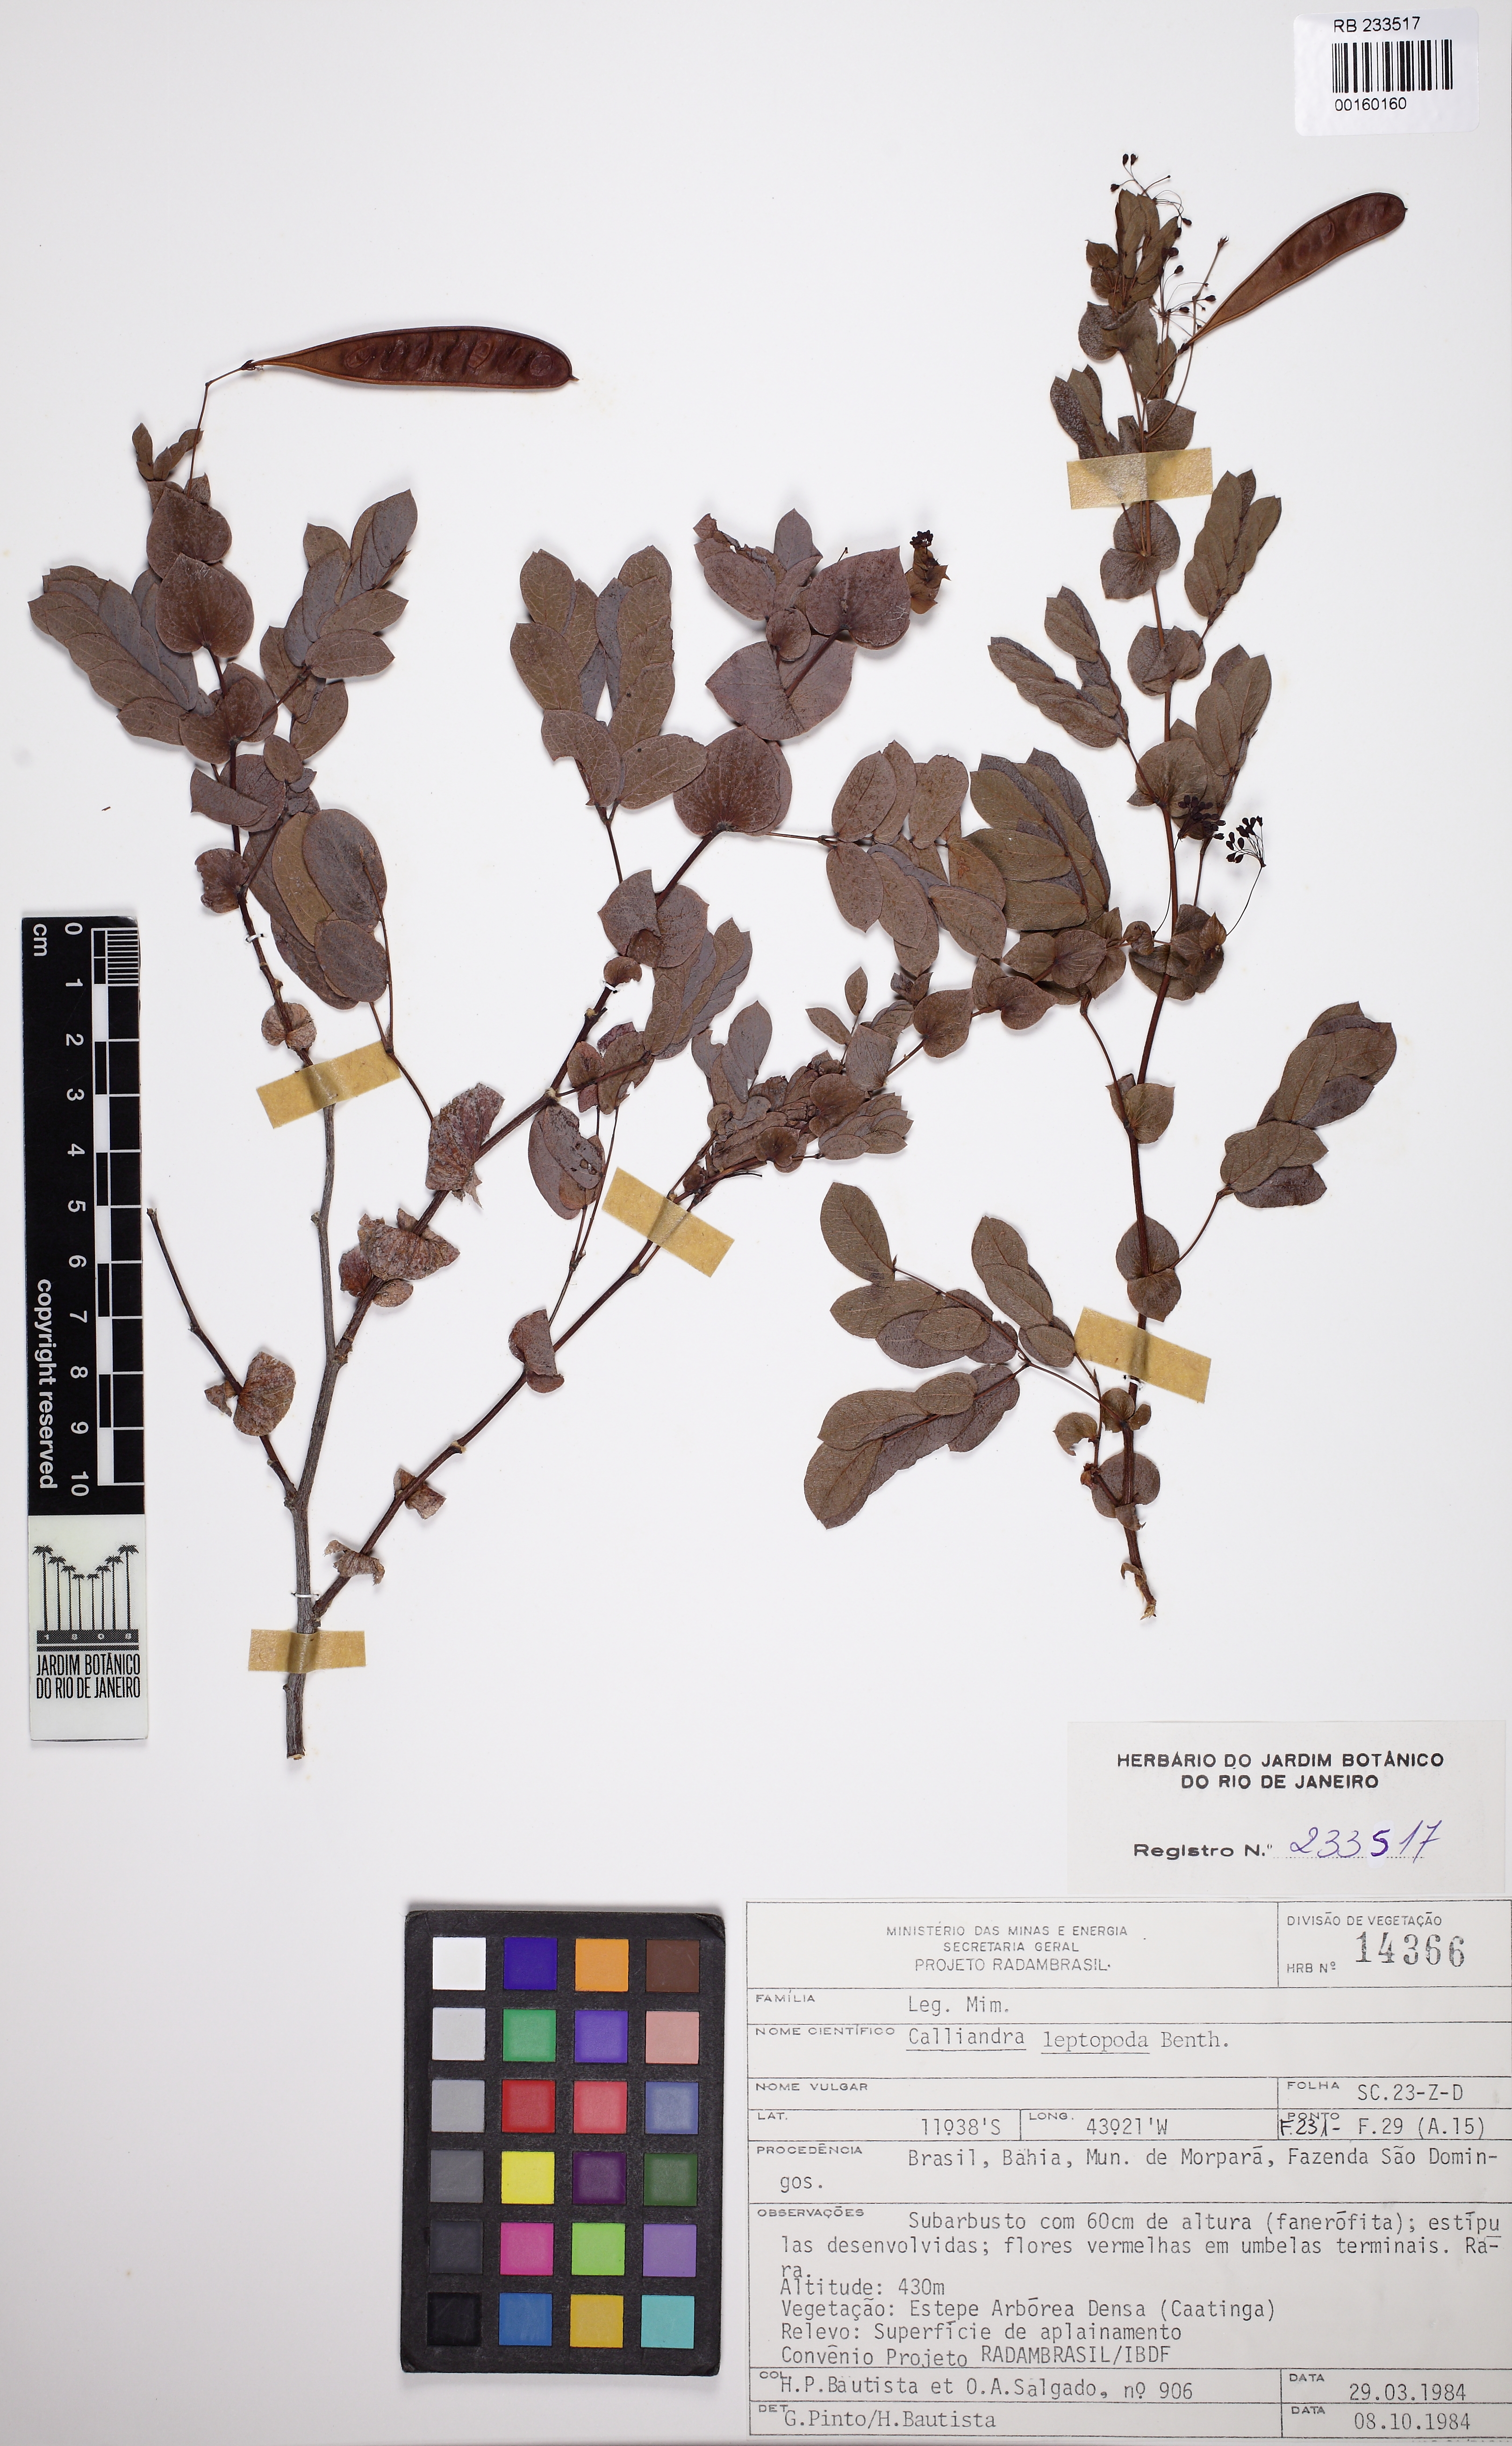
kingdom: Plantae
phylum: Tracheophyta
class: Magnoliopsida
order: Fabales
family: Fabaceae
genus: Calliandra
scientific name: Calliandra leptopoda
